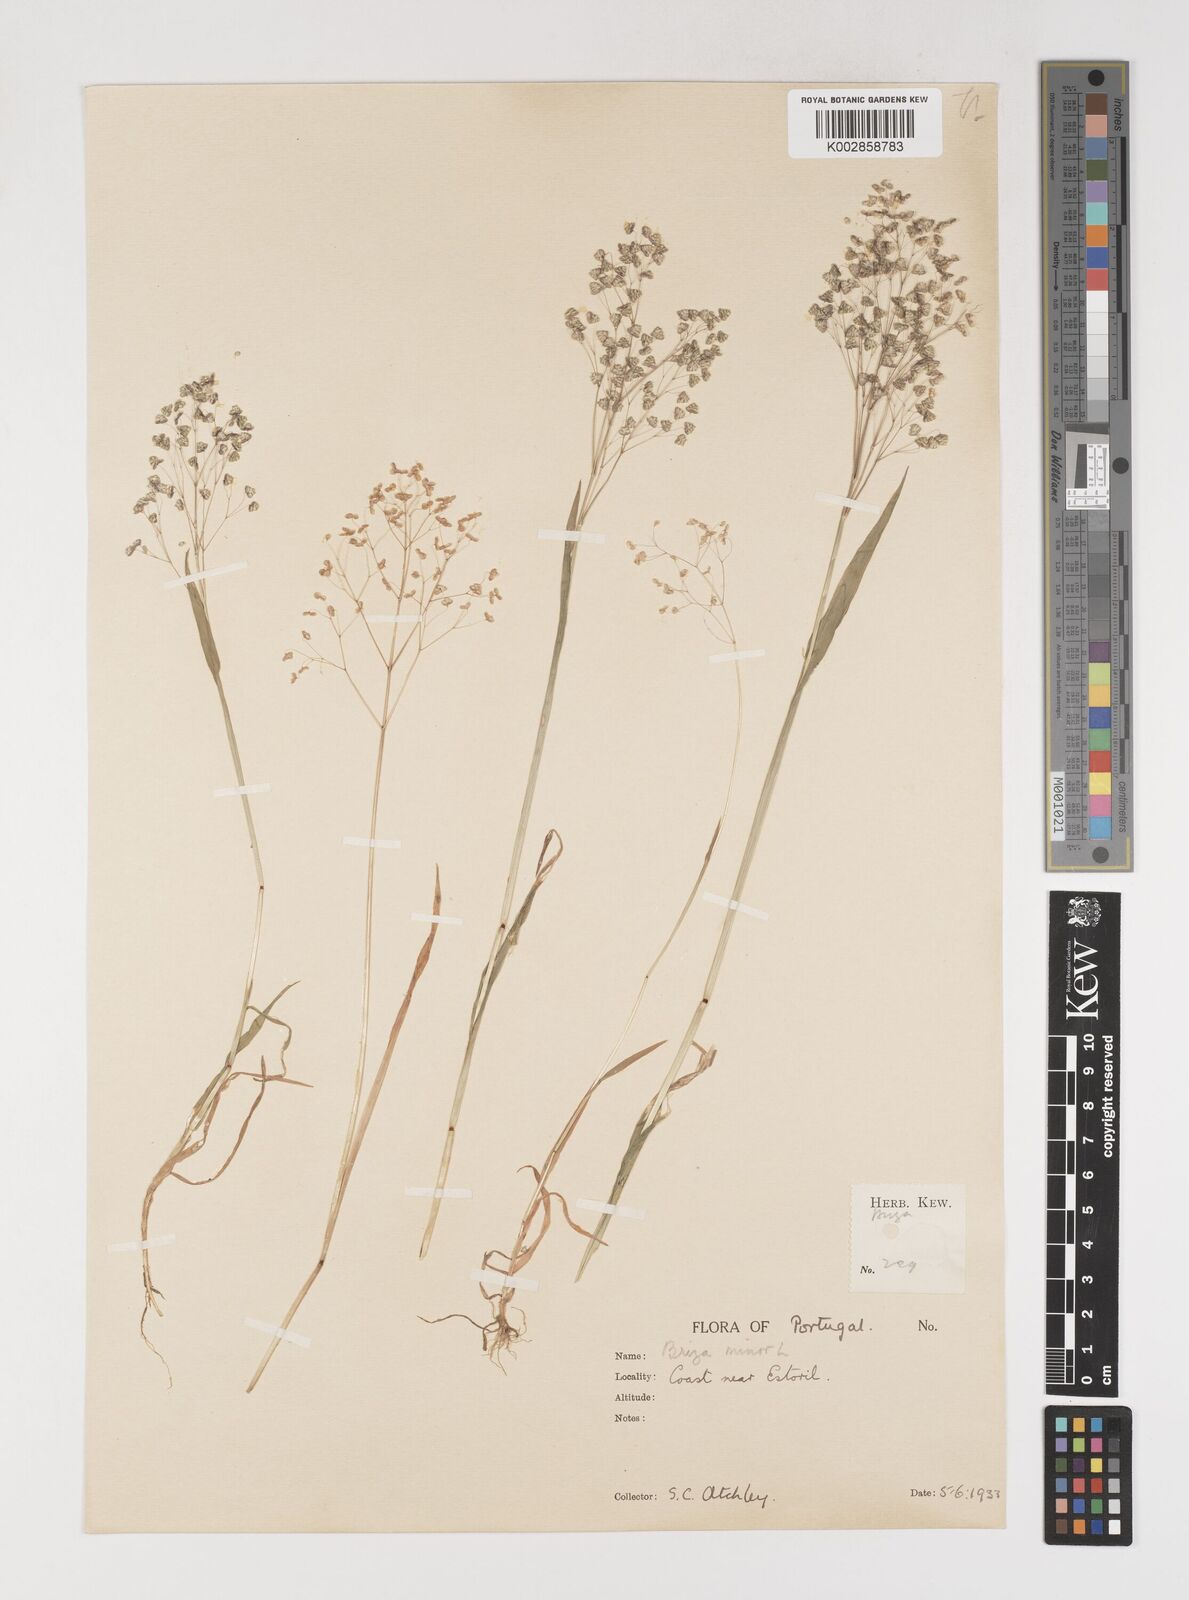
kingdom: Plantae
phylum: Tracheophyta
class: Liliopsida
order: Poales
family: Poaceae
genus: Briza
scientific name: Briza minor
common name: Lesser quaking-grass
